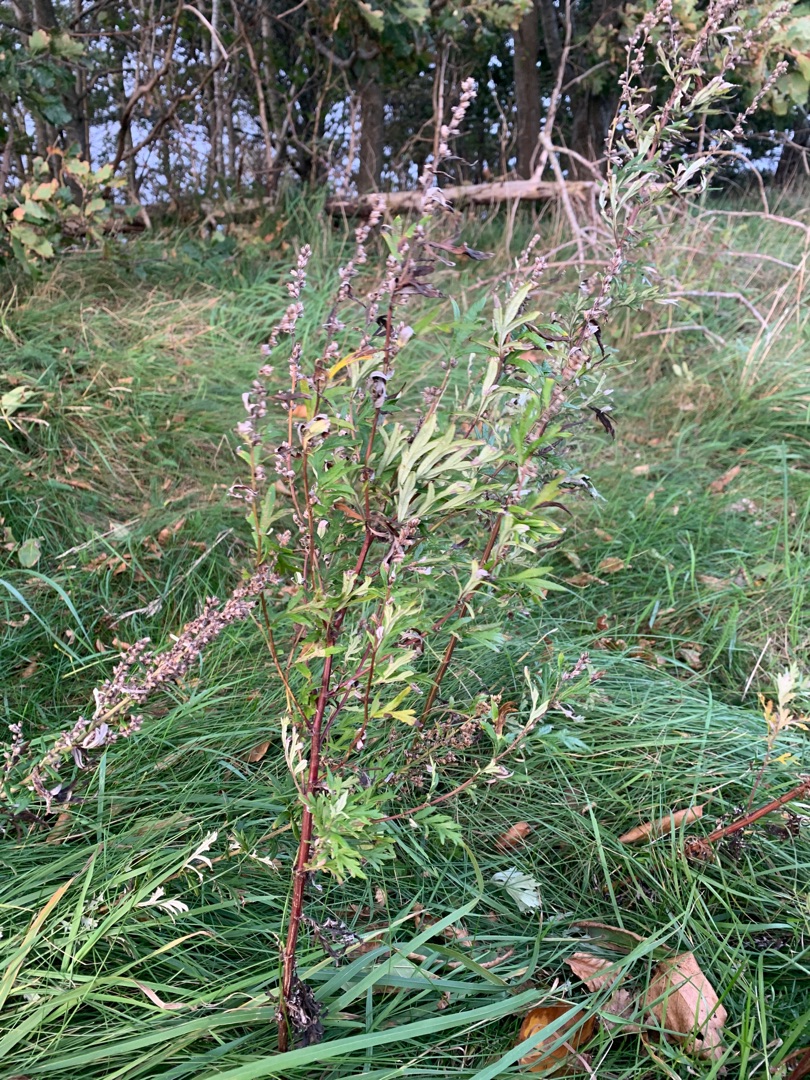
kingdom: Plantae
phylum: Tracheophyta
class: Magnoliopsida
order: Asterales
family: Asteraceae
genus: Artemisia
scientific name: Artemisia vulgaris
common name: Grå-bynke
